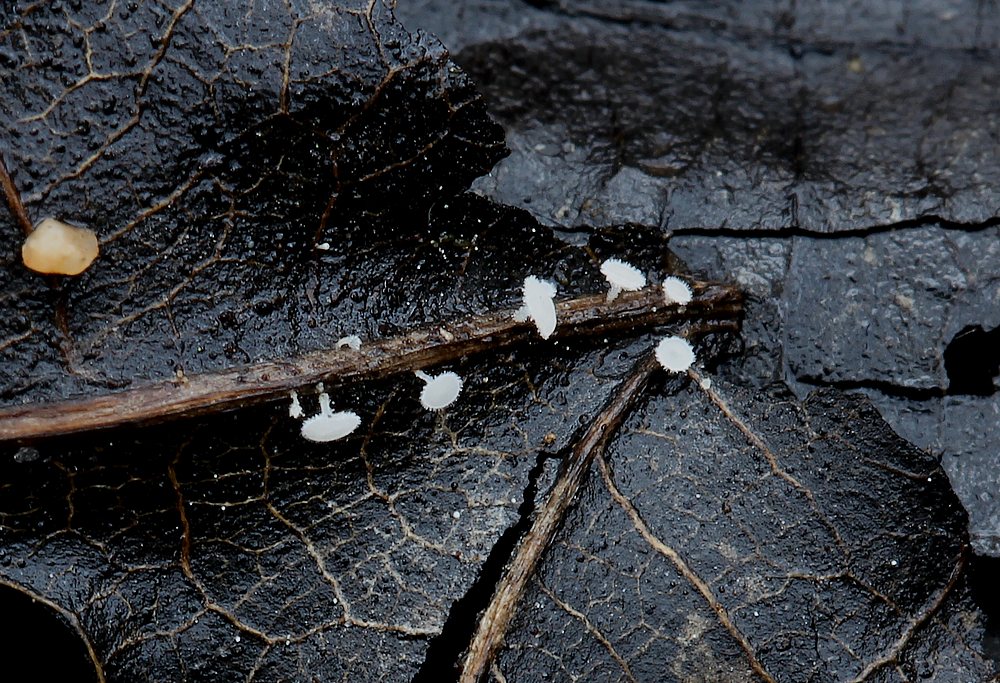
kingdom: Fungi
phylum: Ascomycota
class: Leotiomycetes
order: Helotiales
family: Hyaloscyphaceae
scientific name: Hyaloscyphaceae
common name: frynseskivefamilien
